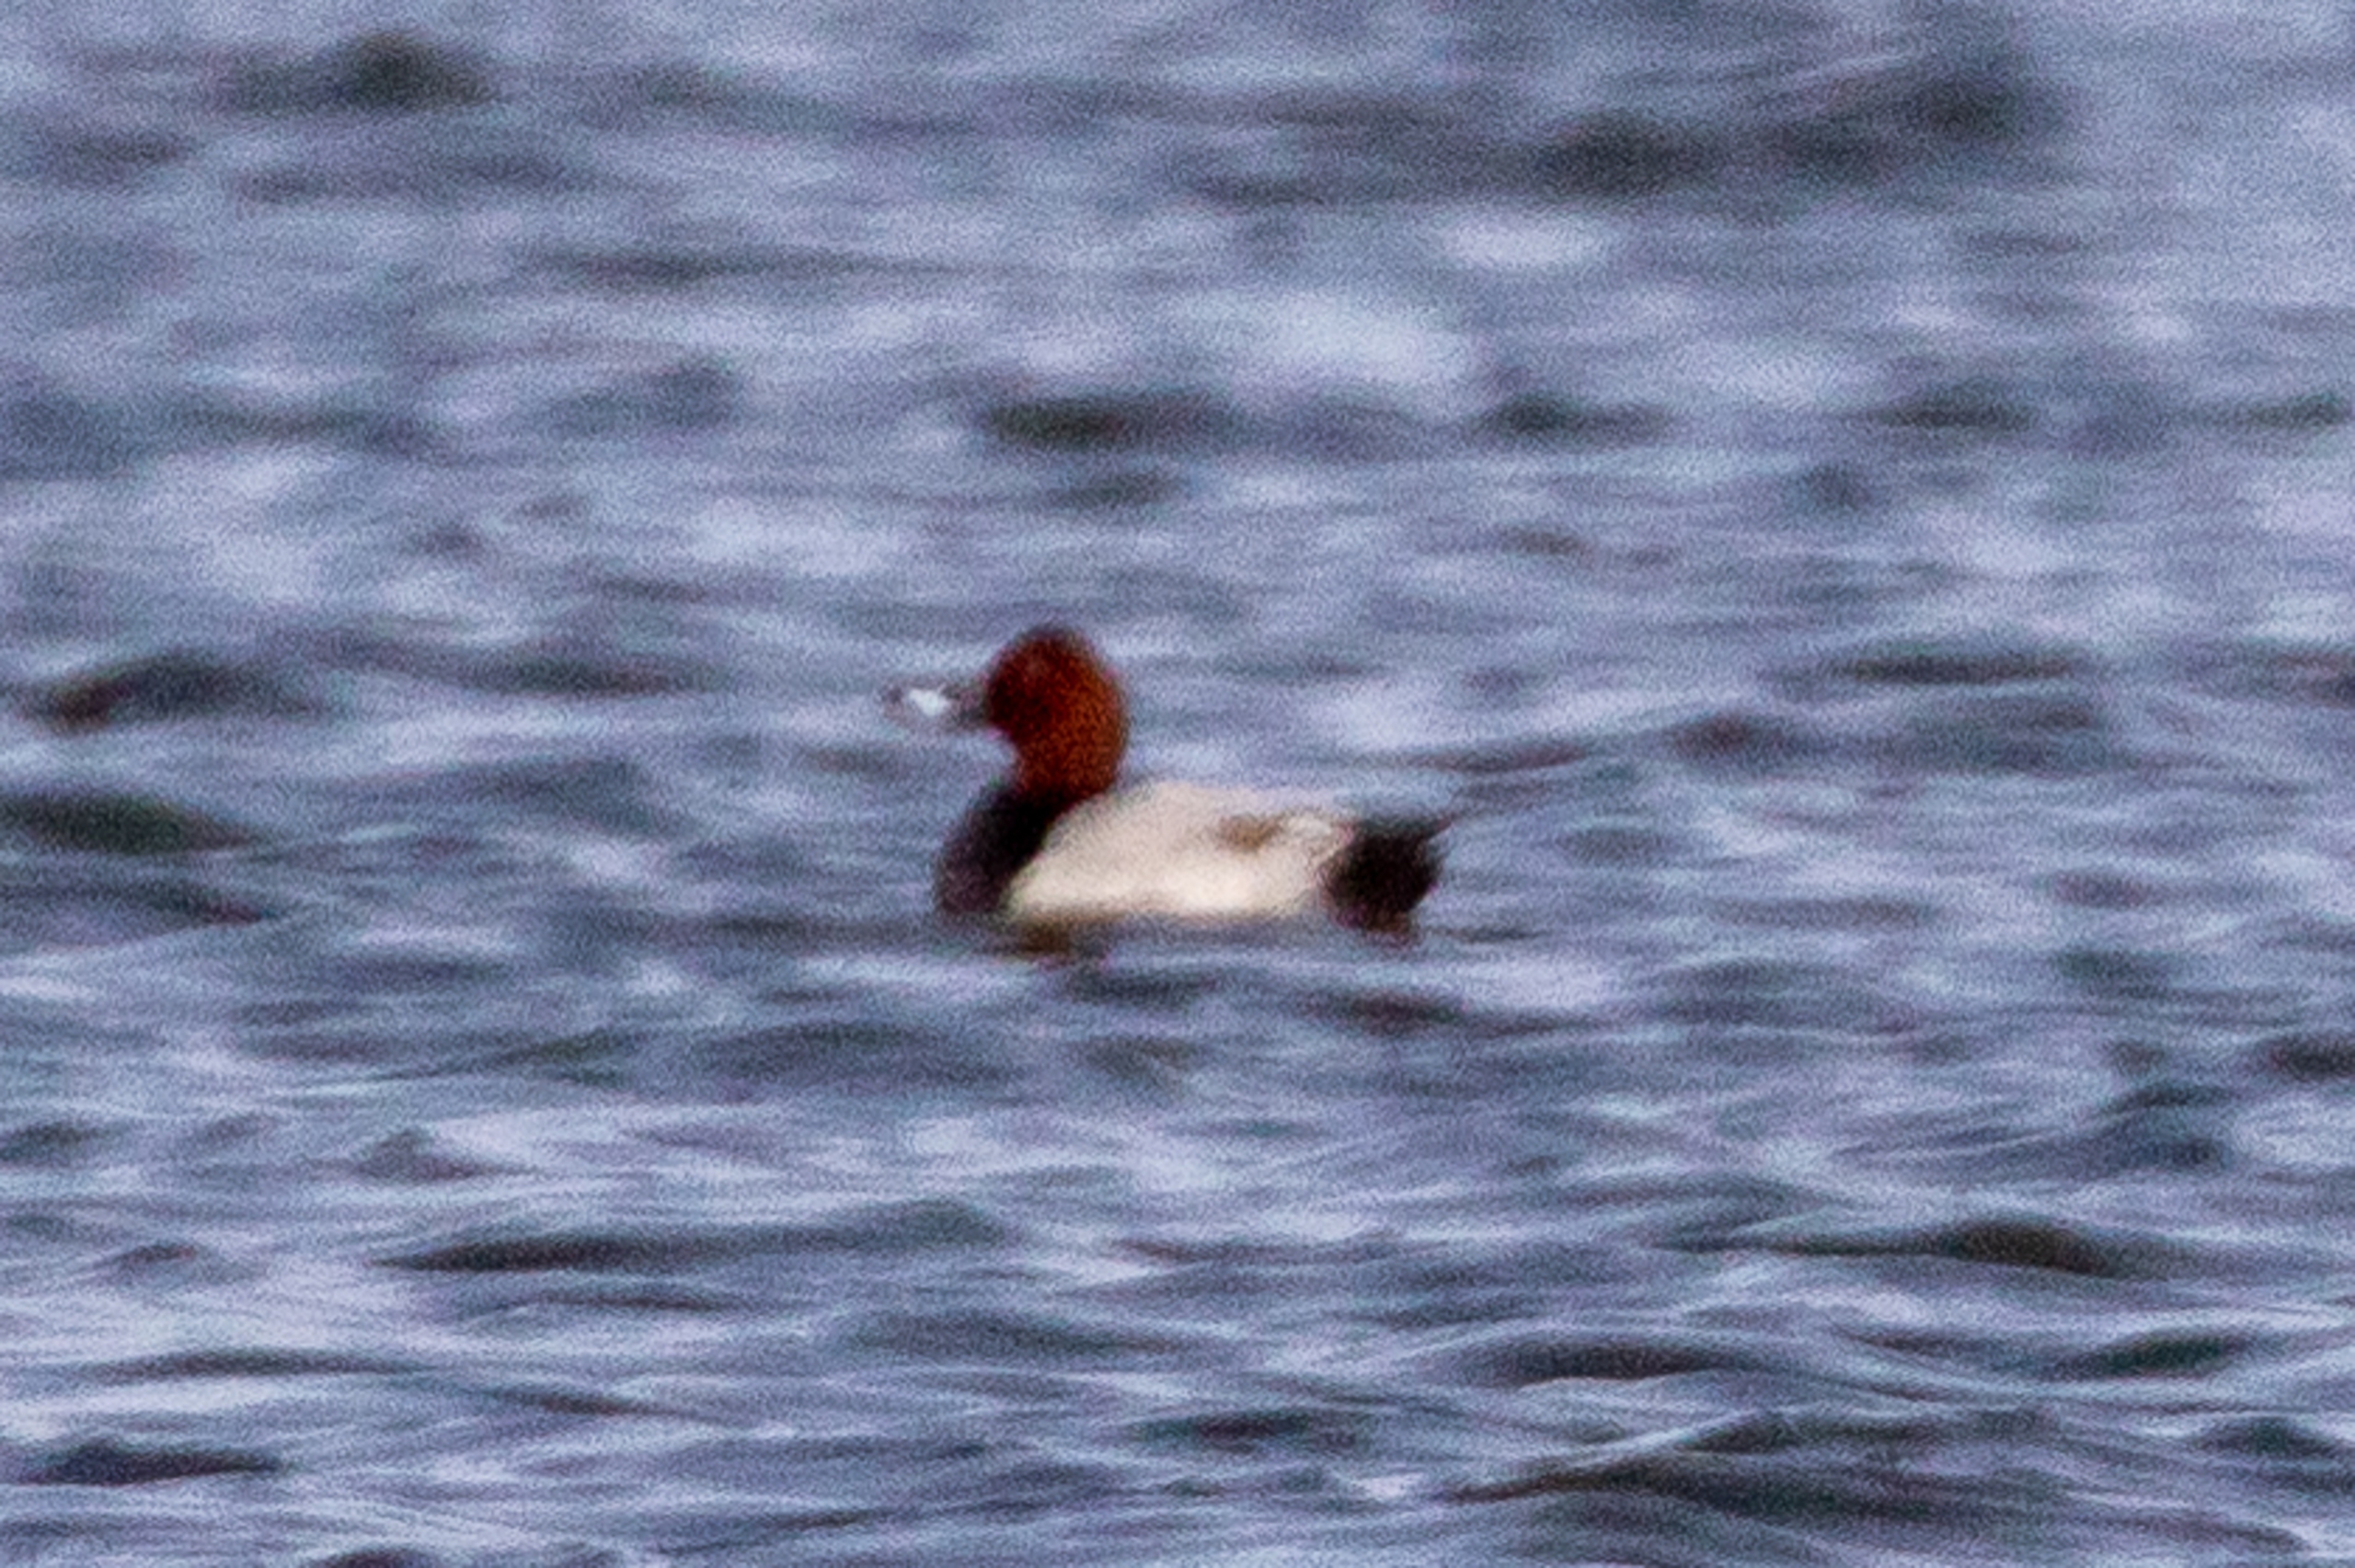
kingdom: Animalia
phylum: Chordata
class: Aves
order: Anseriformes
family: Anatidae
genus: Aythya
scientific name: Aythya ferina
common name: Taffeland
